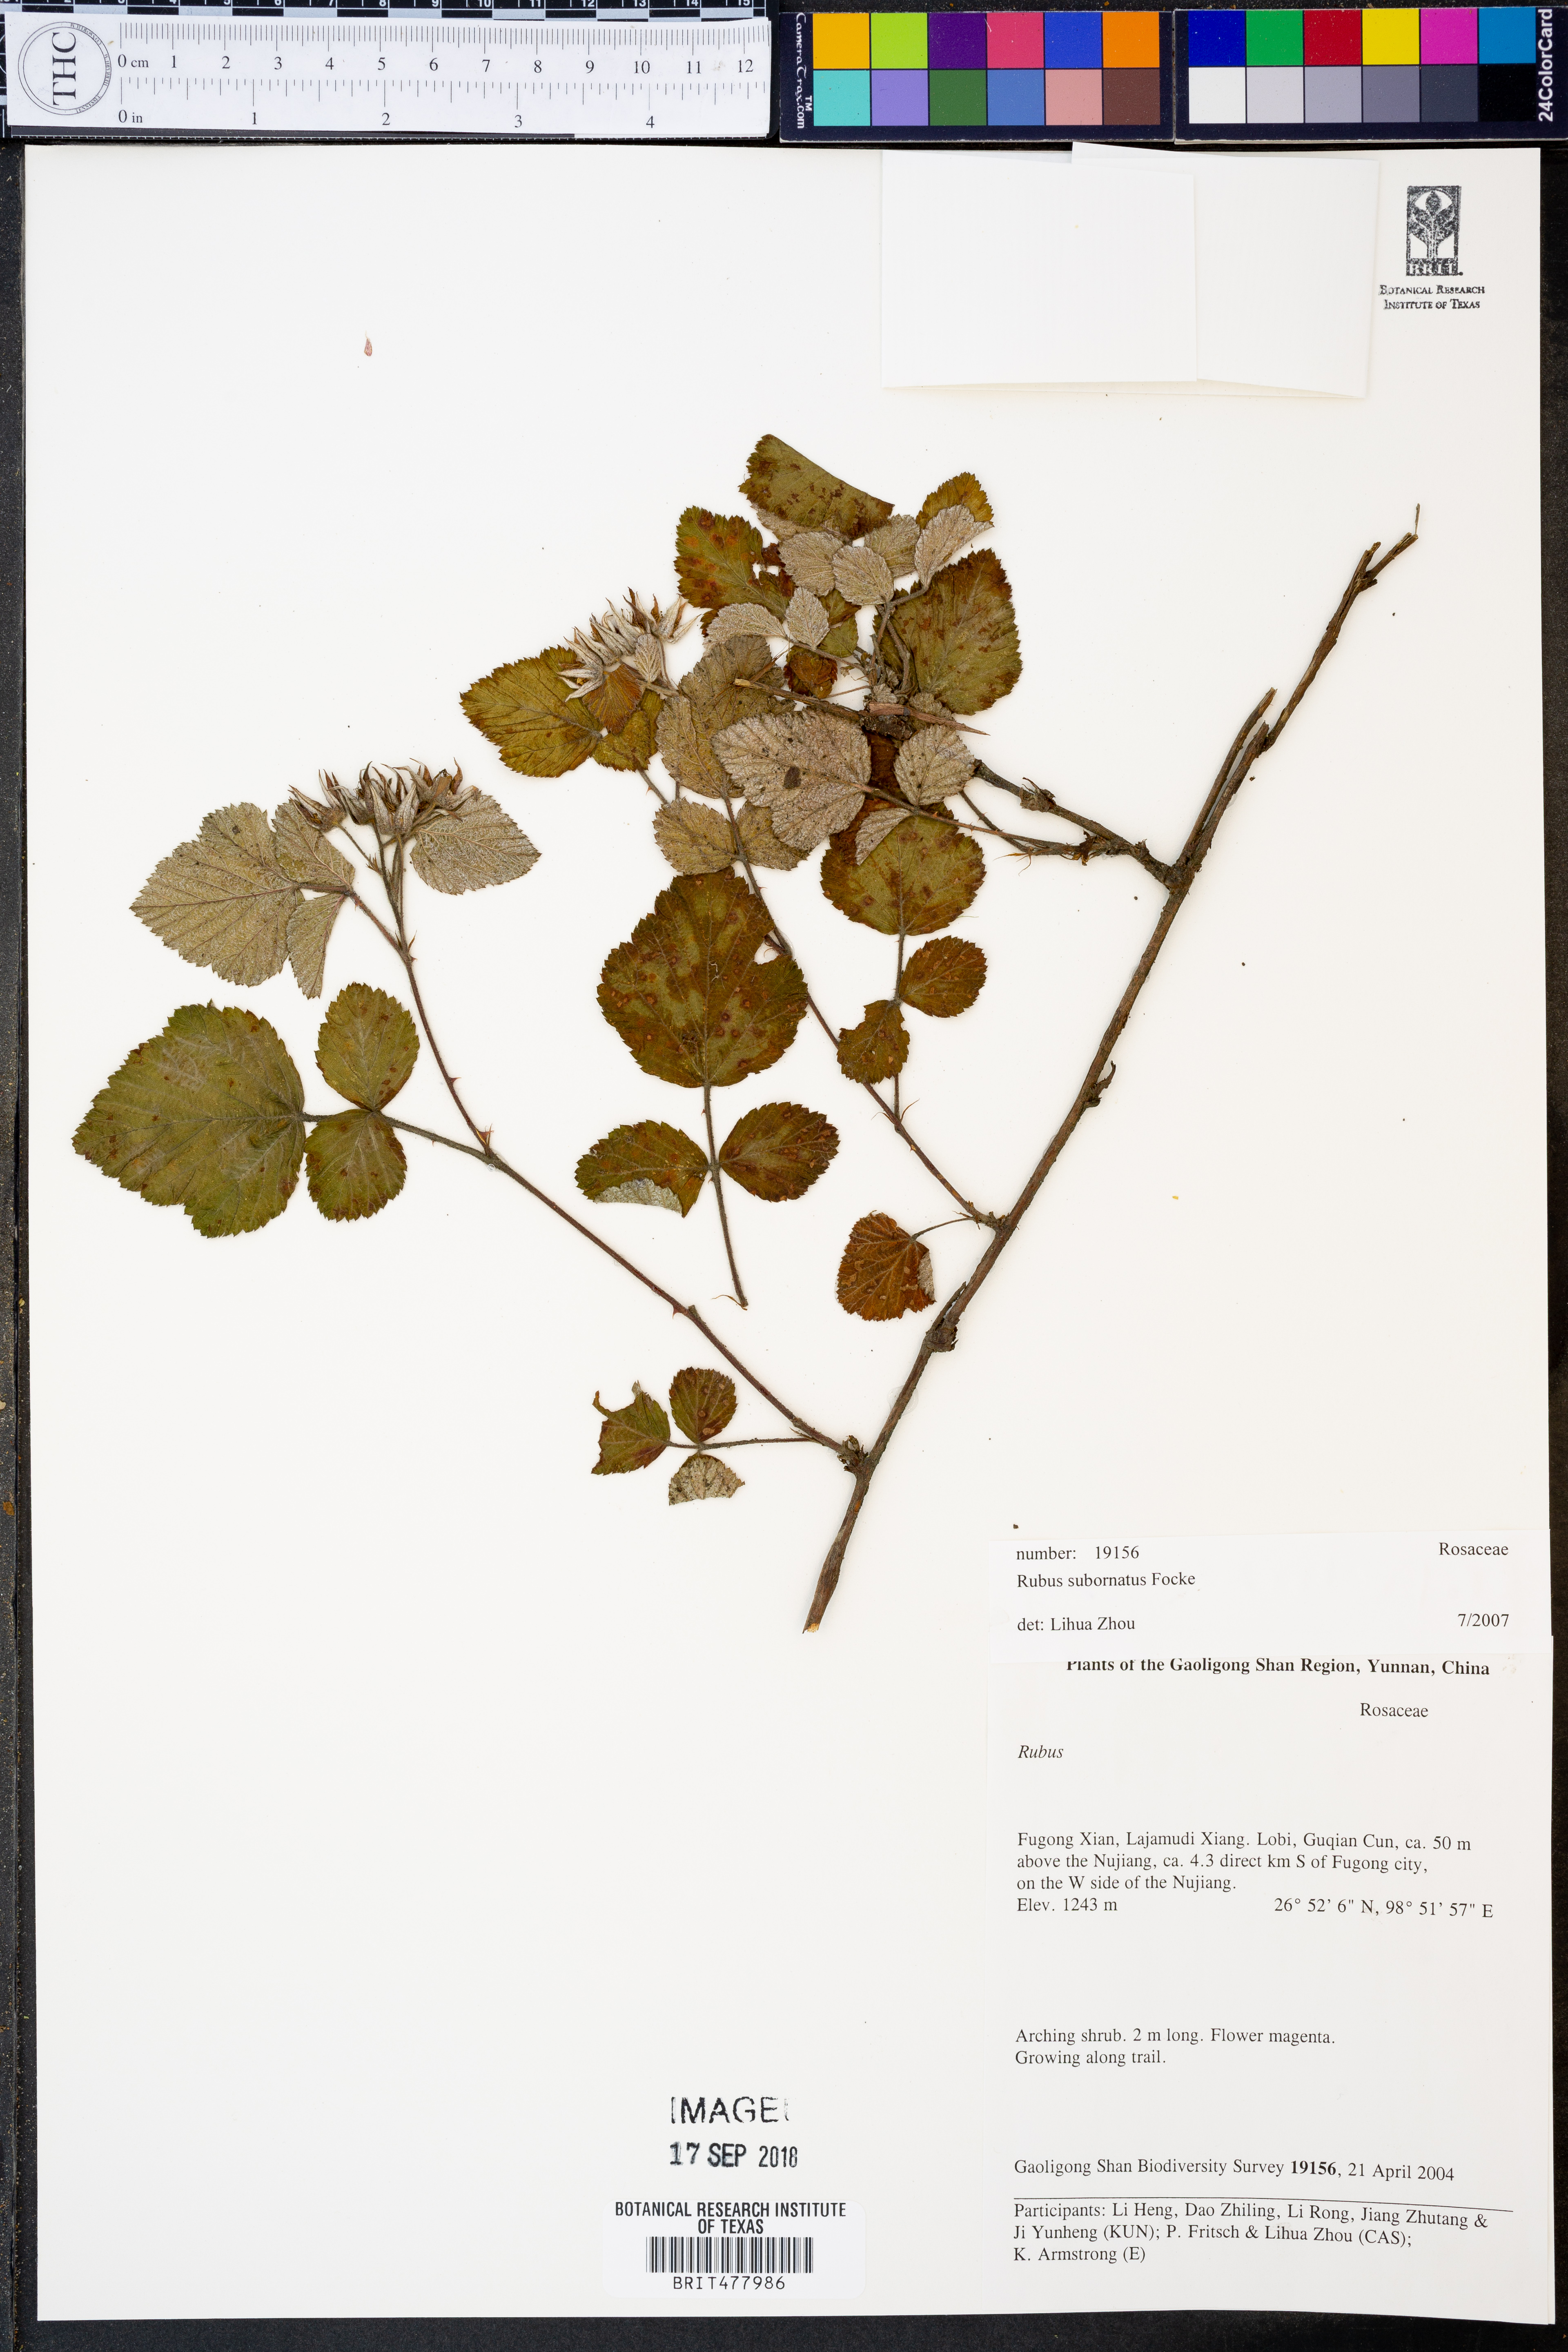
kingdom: Plantae
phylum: Tracheophyta
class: Magnoliopsida
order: Rosales
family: Rosaceae
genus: Rubus
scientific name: Rubus subornatus
